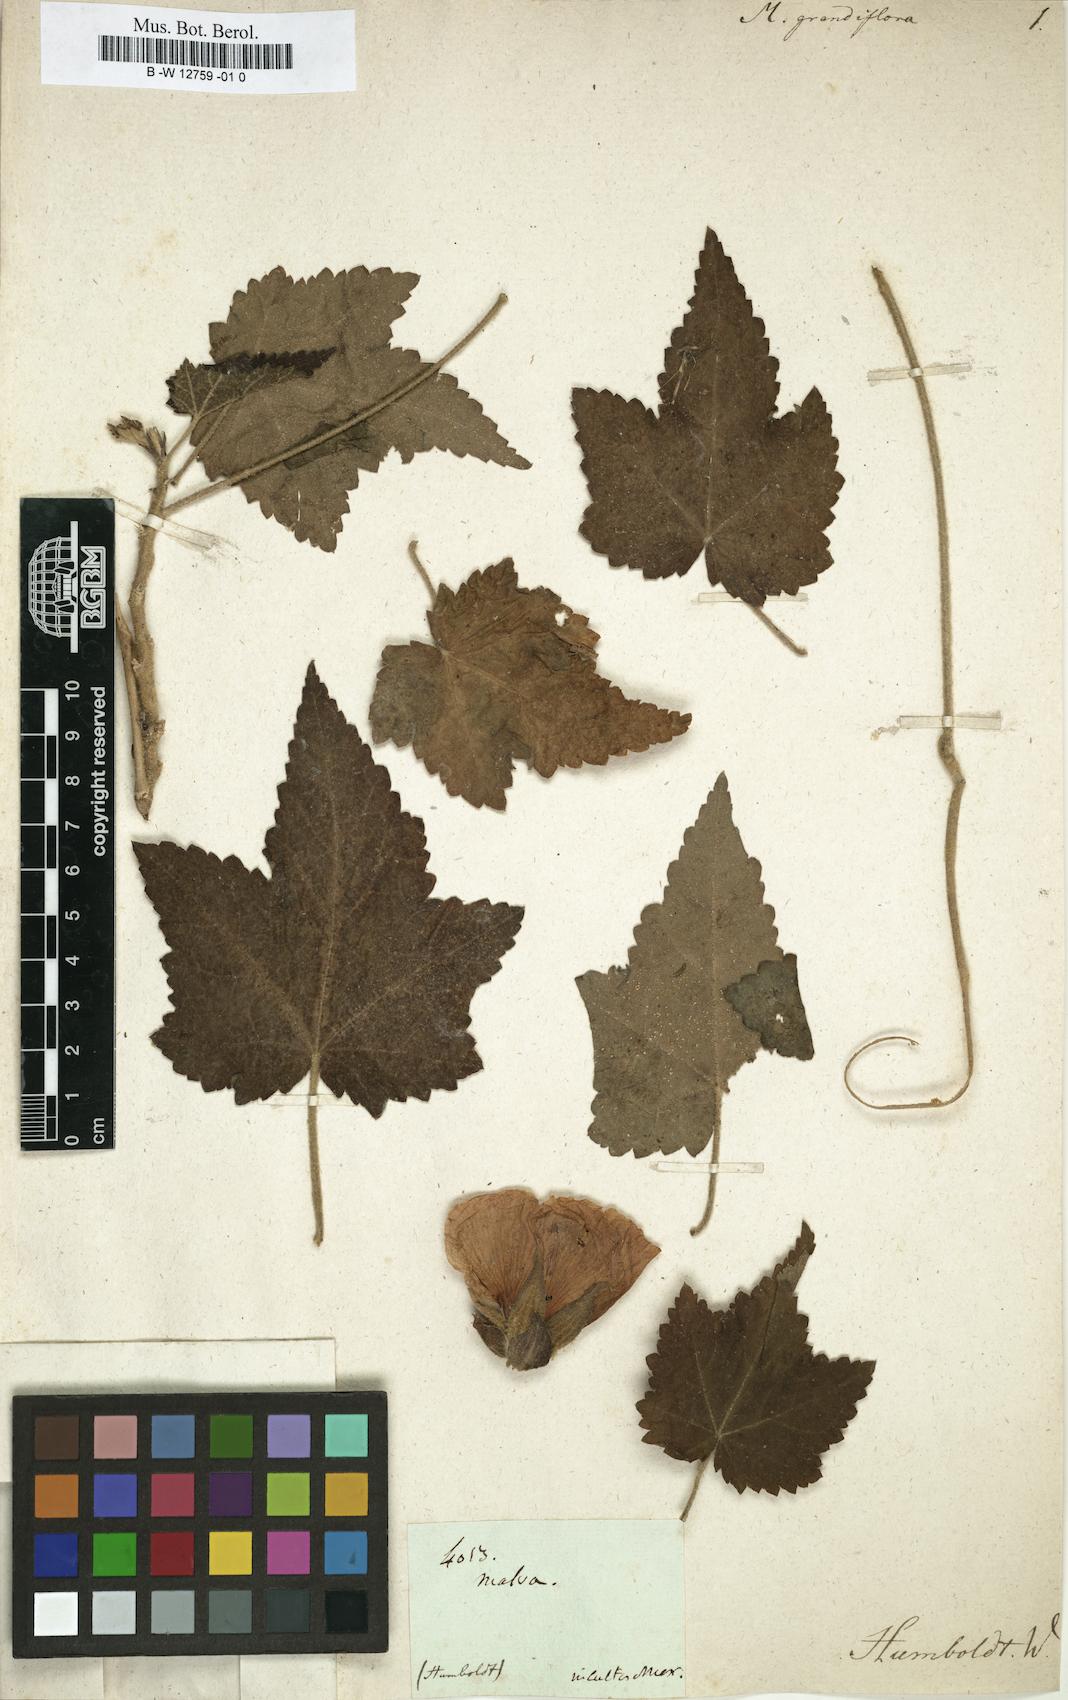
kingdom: Plantae
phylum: Tracheophyta
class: Magnoliopsida
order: Malvales
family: Malvaceae
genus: Callirhoe
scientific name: Callirhoe papaver
